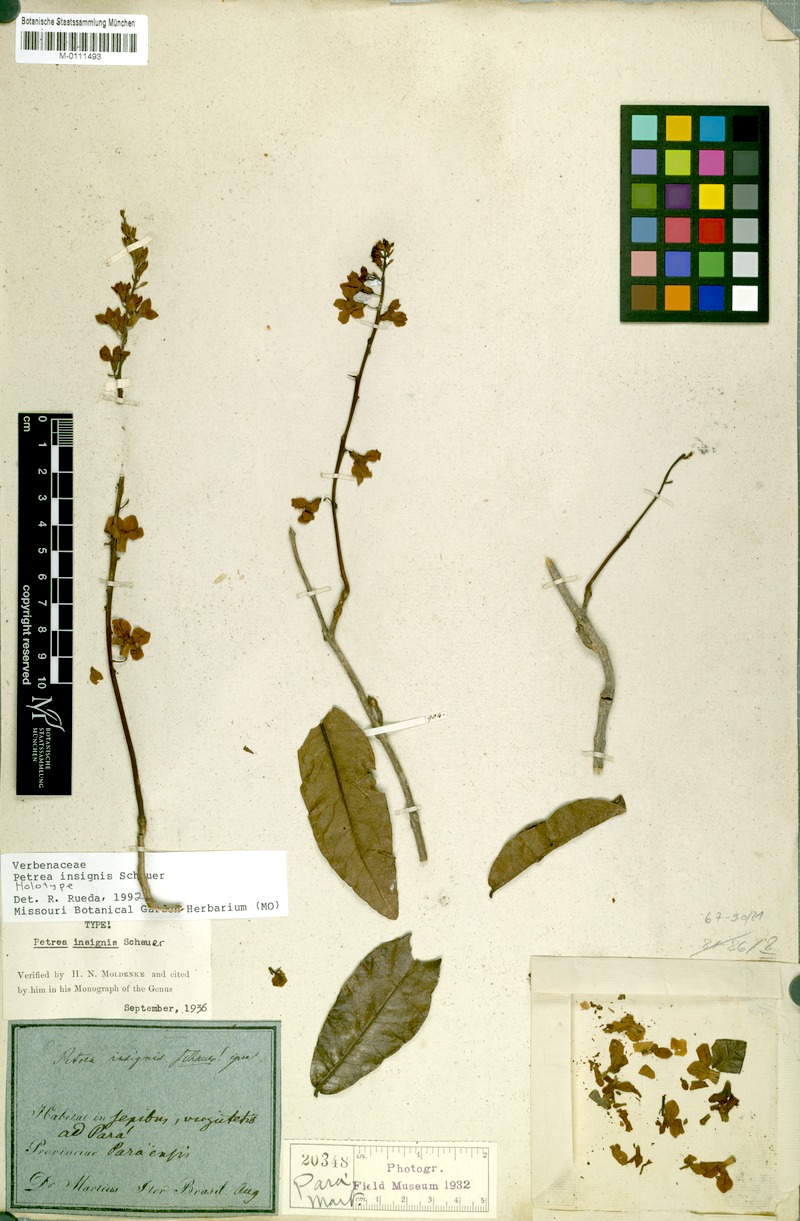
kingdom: Plantae
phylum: Tracheophyta
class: Magnoliopsida
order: Lamiales
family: Verbenaceae
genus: Petrea
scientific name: Petrea insignis
